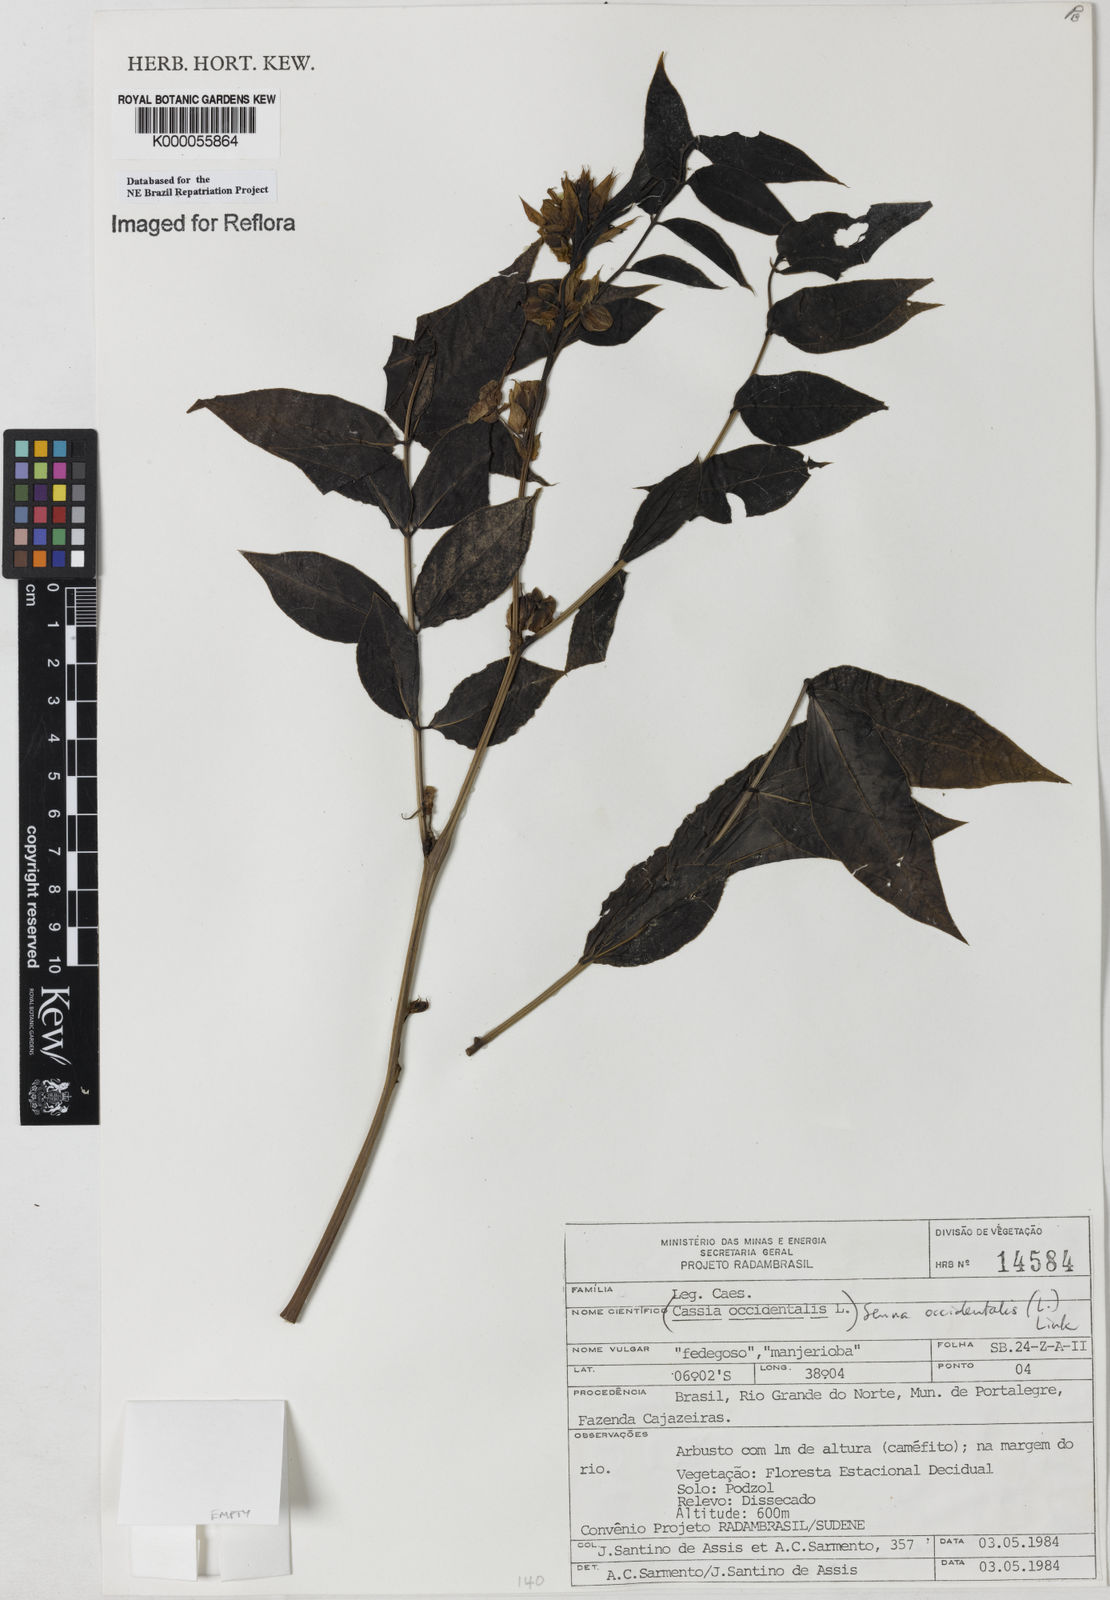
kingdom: Plantae
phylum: Tracheophyta
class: Magnoliopsida
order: Fabales
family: Fabaceae
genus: Senna
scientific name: Senna occidentalis
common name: Septicweed
